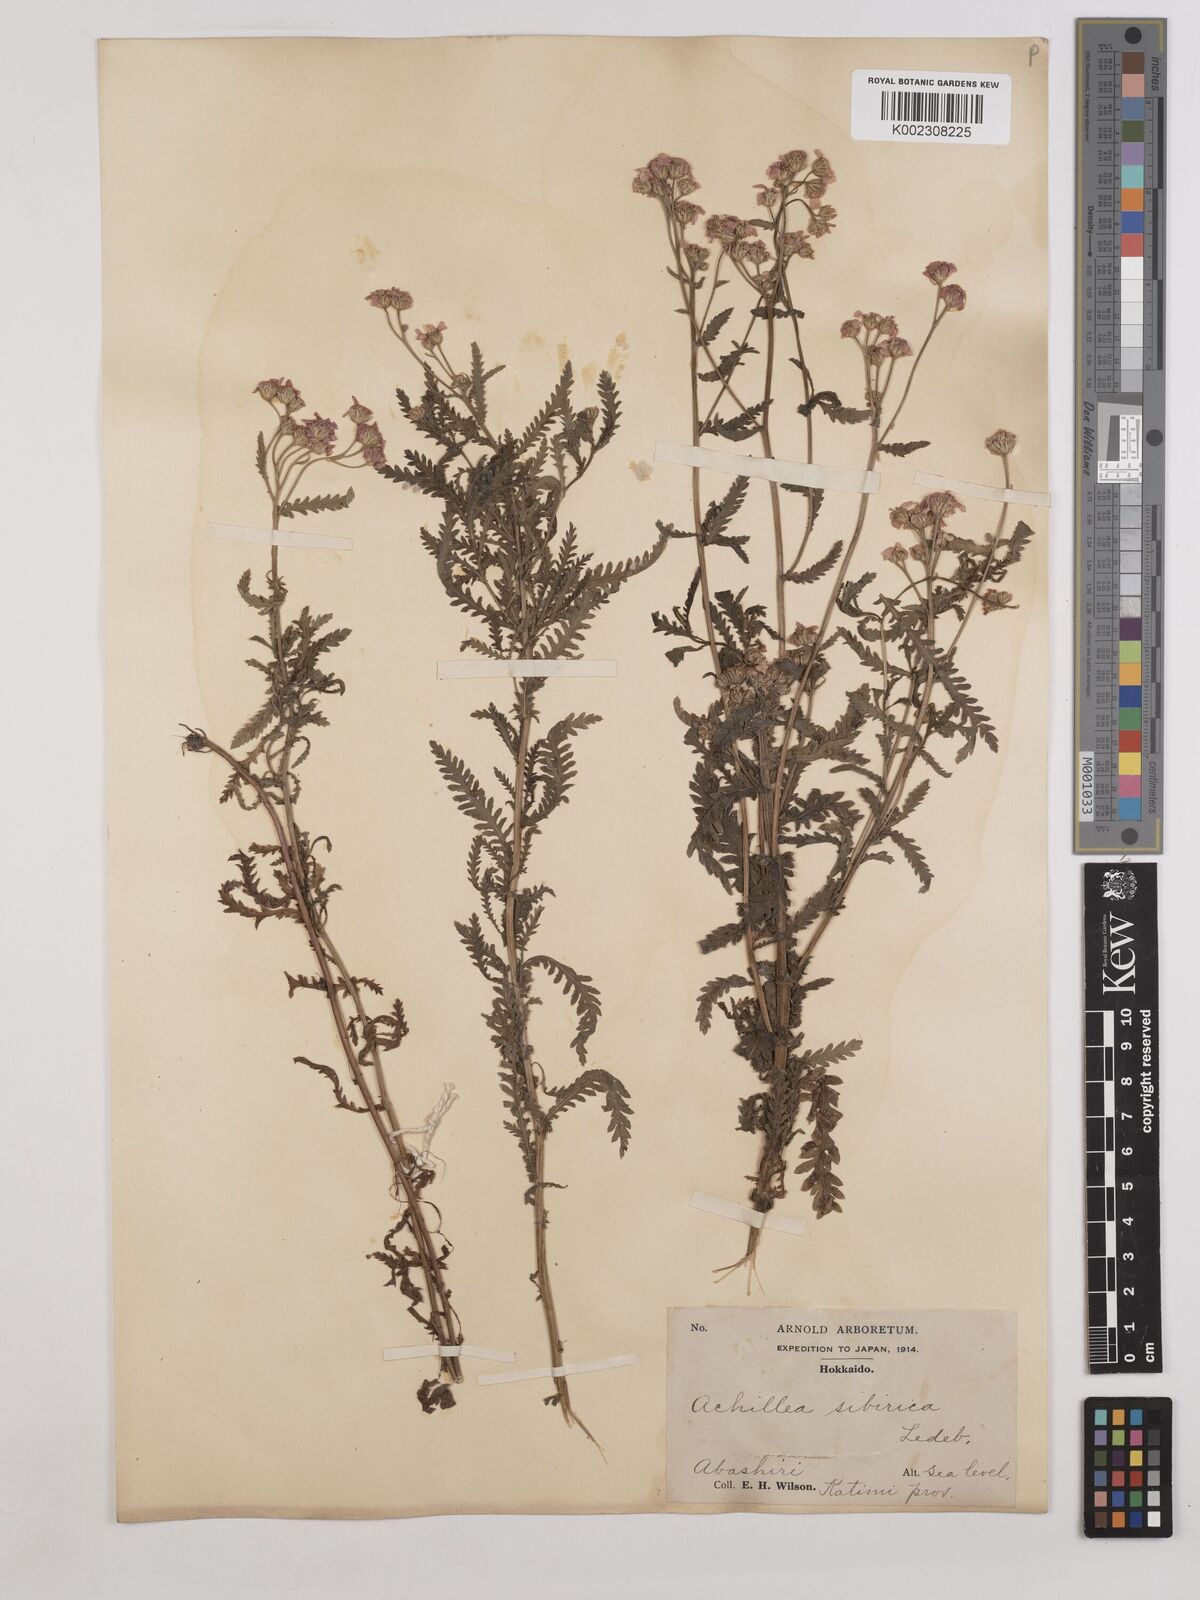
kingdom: Plantae
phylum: Tracheophyta
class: Magnoliopsida
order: Asterales
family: Asteraceae
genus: Achillea
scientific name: Achillea alpina
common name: Siberian yarrow
